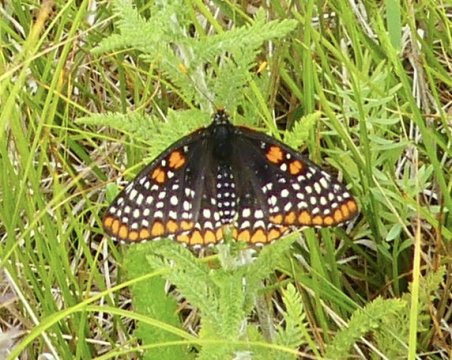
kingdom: Animalia
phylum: Arthropoda
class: Insecta
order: Lepidoptera
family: Nymphalidae
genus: Euphydryas
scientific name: Euphydryas phaeton
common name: Baltimore Checkerspot
